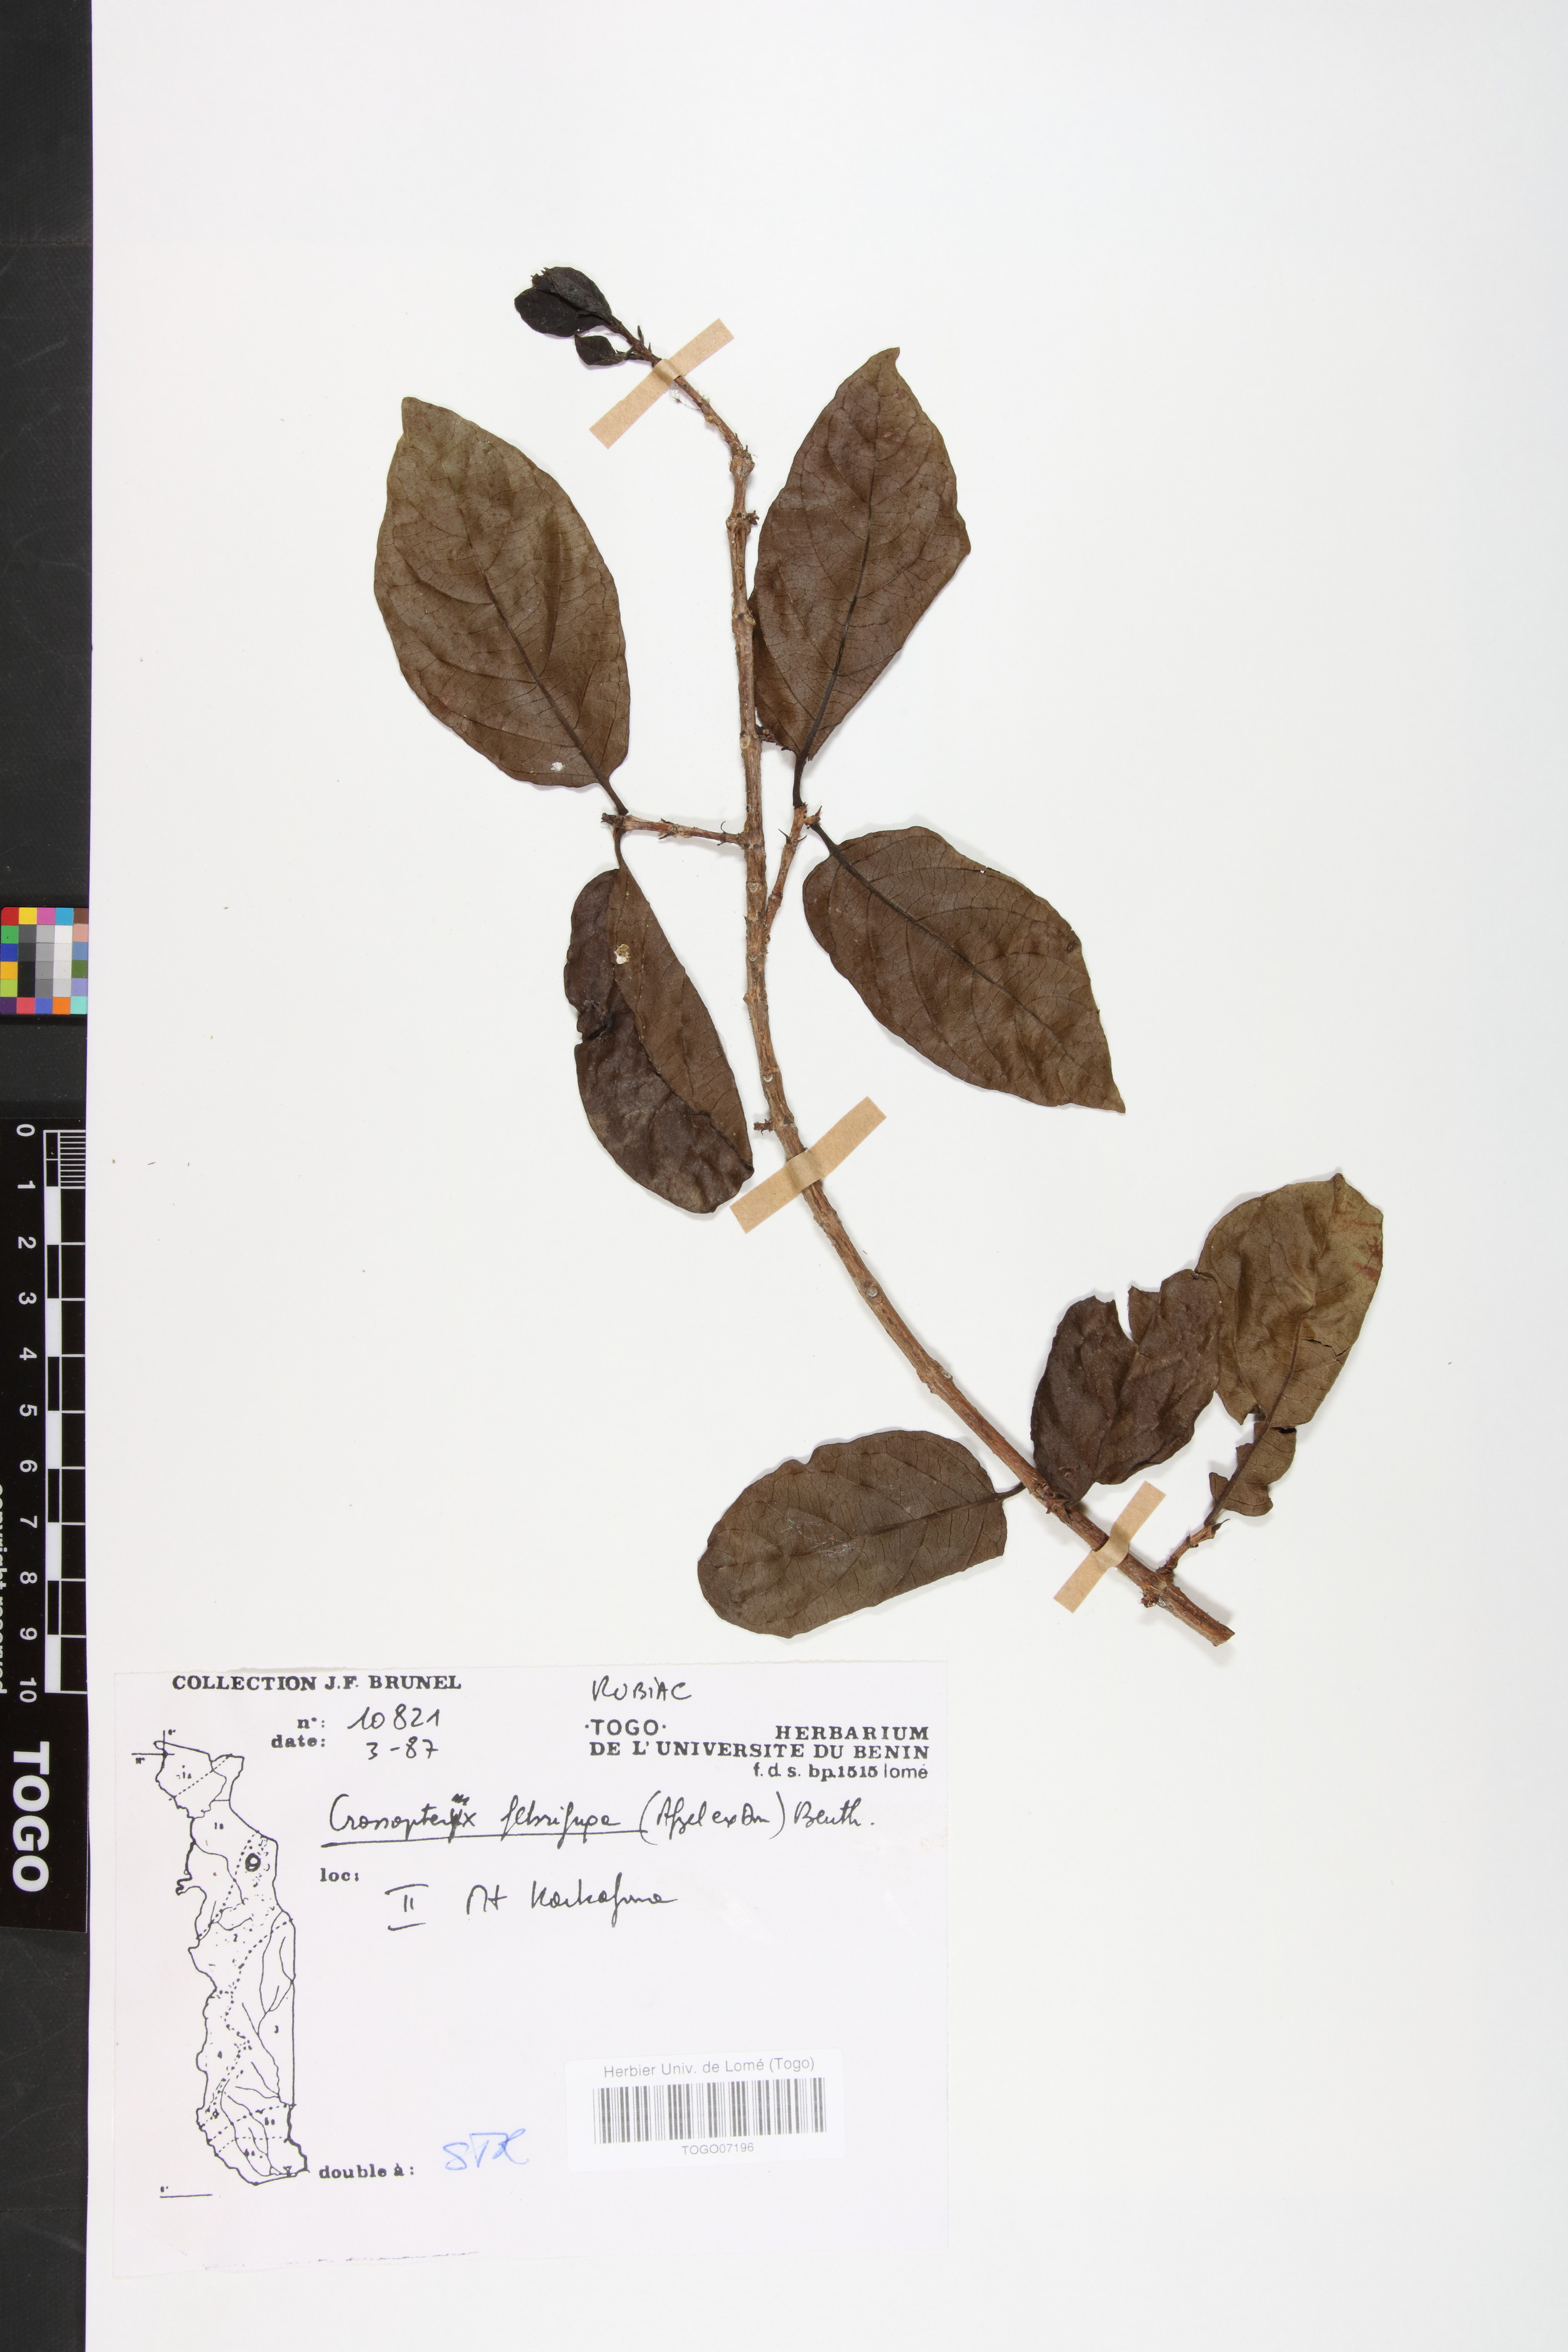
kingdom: Plantae
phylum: Tracheophyta
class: Magnoliopsida
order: Gentianales
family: Rubiaceae
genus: Crossopteryx
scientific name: Crossopteryx febrifuga
